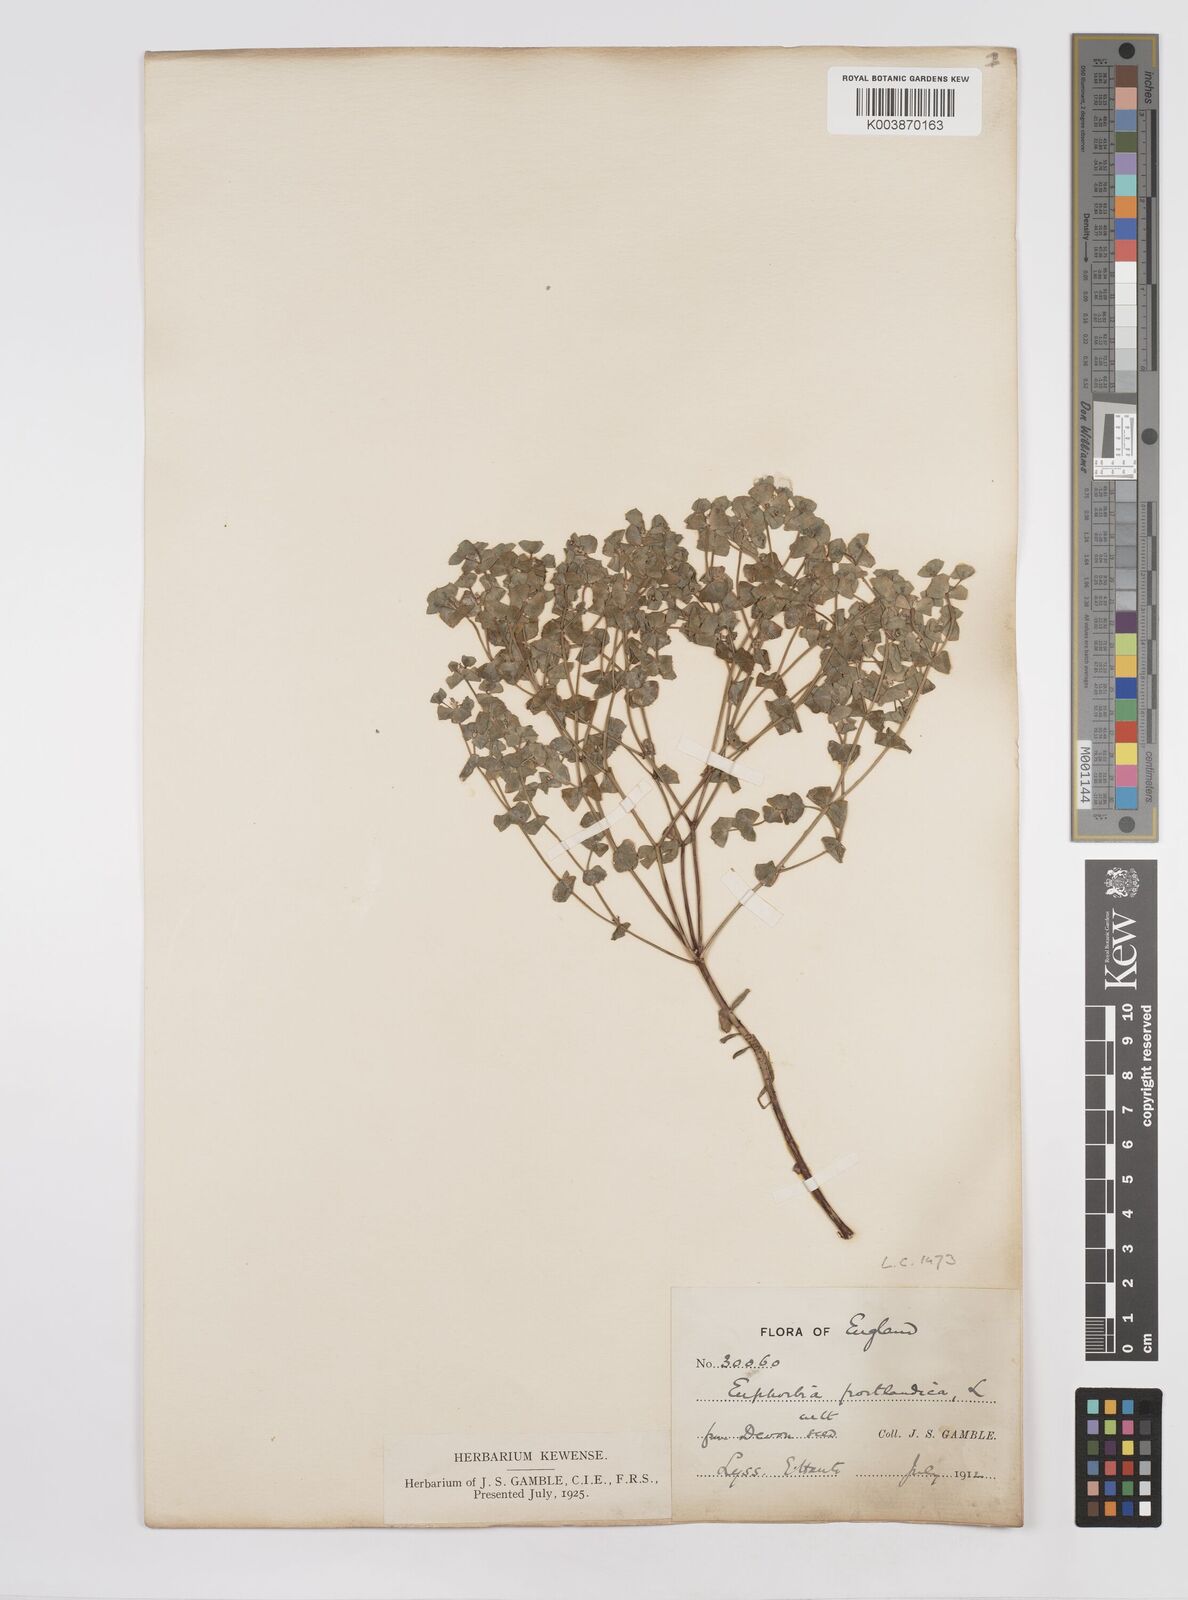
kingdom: Plantae
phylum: Tracheophyta
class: Magnoliopsida
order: Malpighiales
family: Euphorbiaceae
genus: Euphorbia
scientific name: Euphorbia portlandica
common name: Portland spurge
